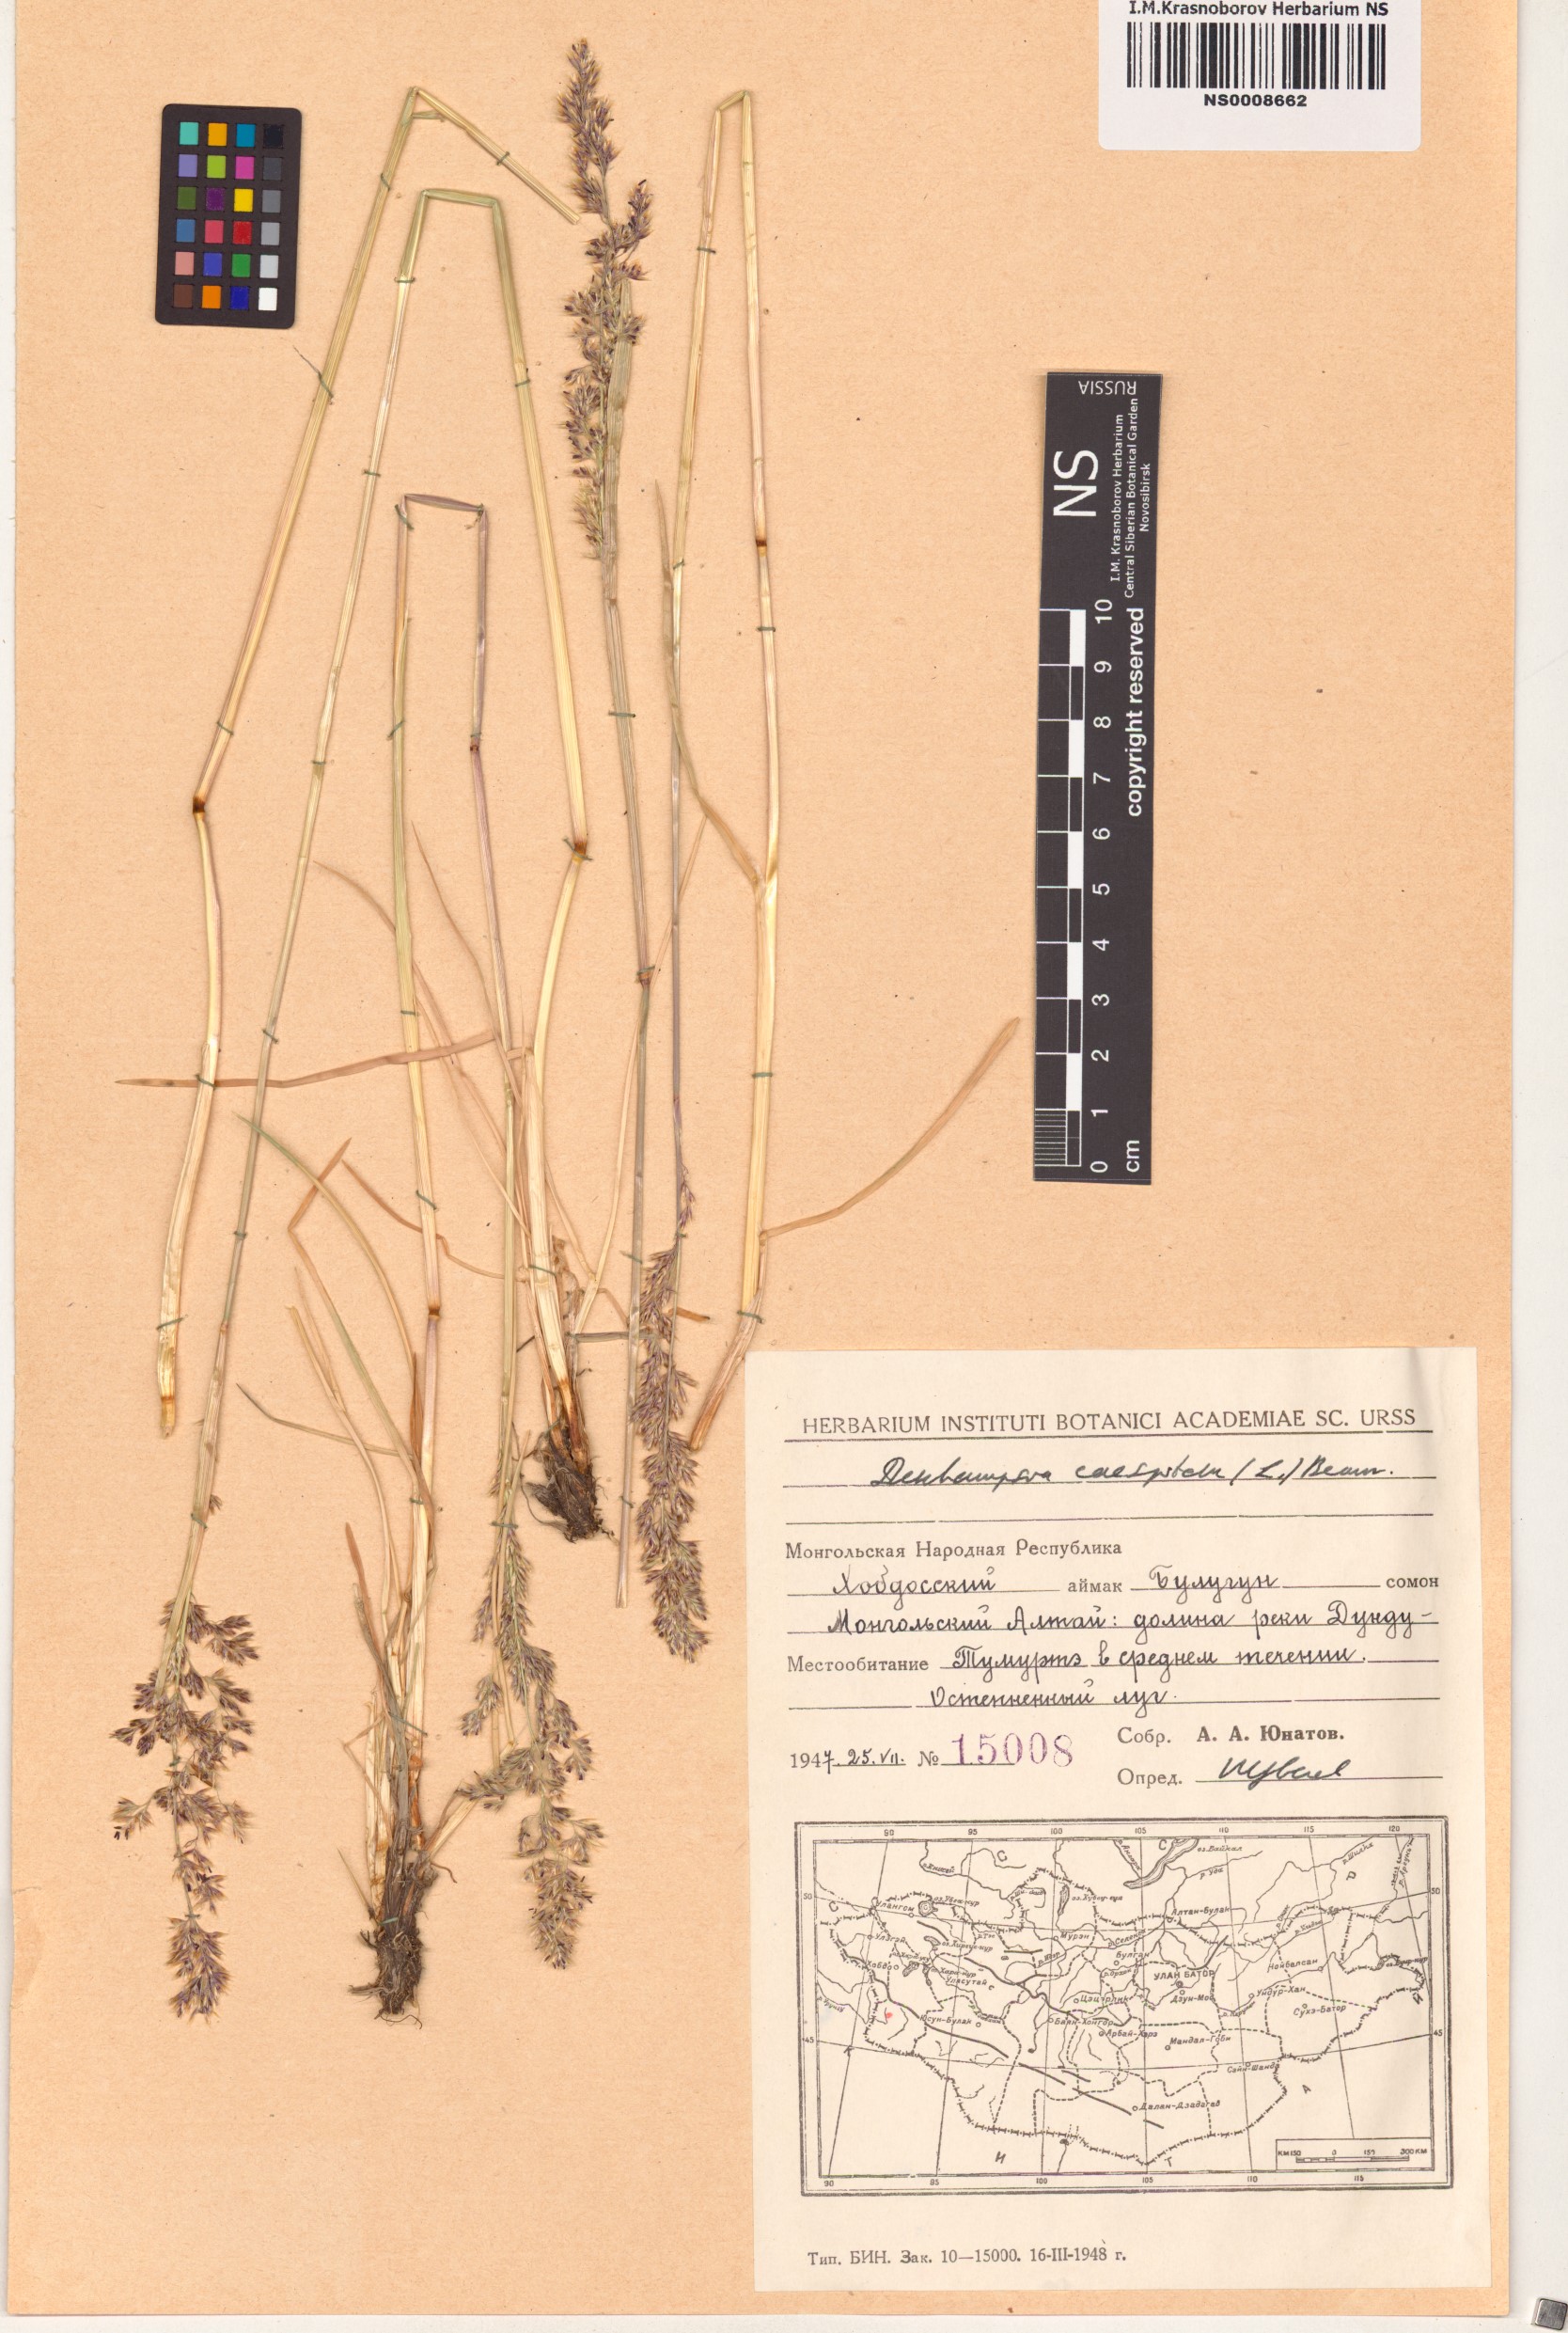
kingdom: Plantae
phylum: Tracheophyta
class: Liliopsida
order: Poales
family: Poaceae
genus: Deschampsia
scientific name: Deschampsia cespitosa
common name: Tufted hair-grass
